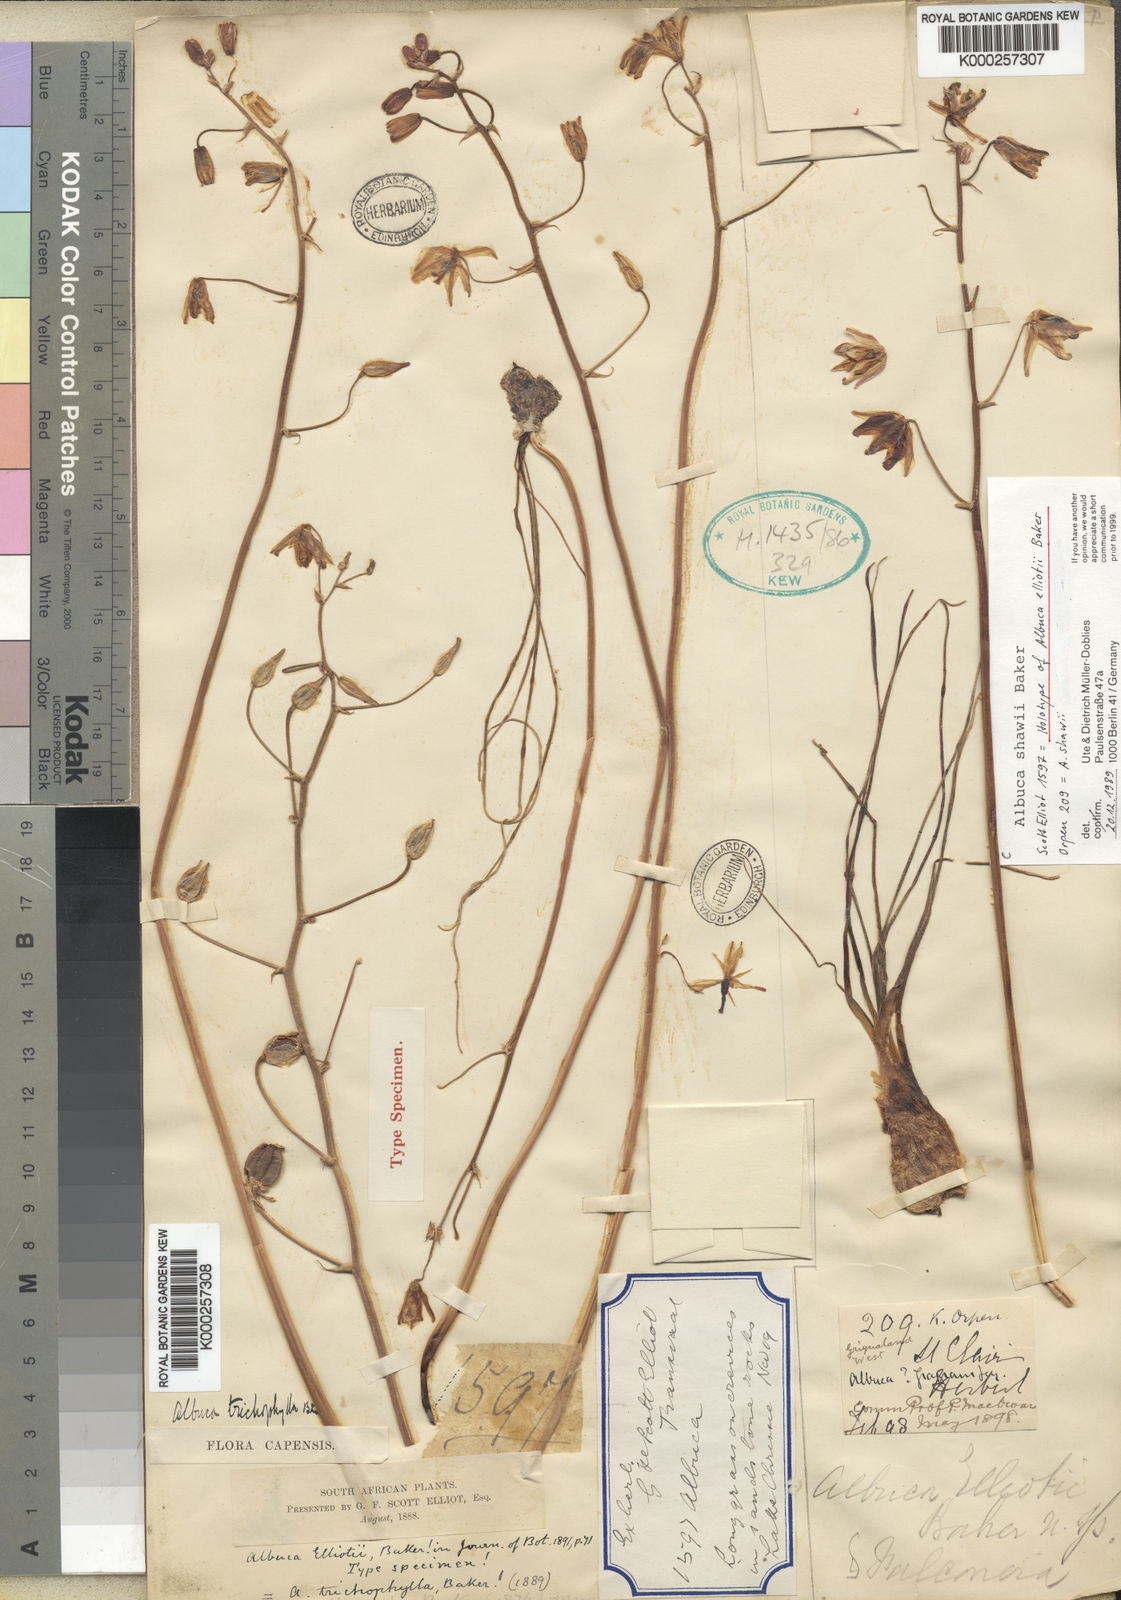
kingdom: Plantae
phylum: Tracheophyta
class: Liliopsida
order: Asparagales
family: Asparagaceae
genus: Albuca
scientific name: Albuca shawii
